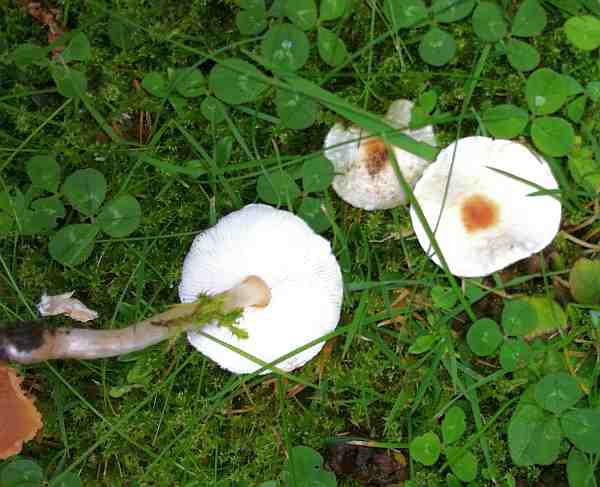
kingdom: Fungi
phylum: Basidiomycota
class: Agaricomycetes
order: Agaricales
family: Agaricaceae
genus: Lepiota
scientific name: Lepiota cristata
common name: stinkende parasolhat
